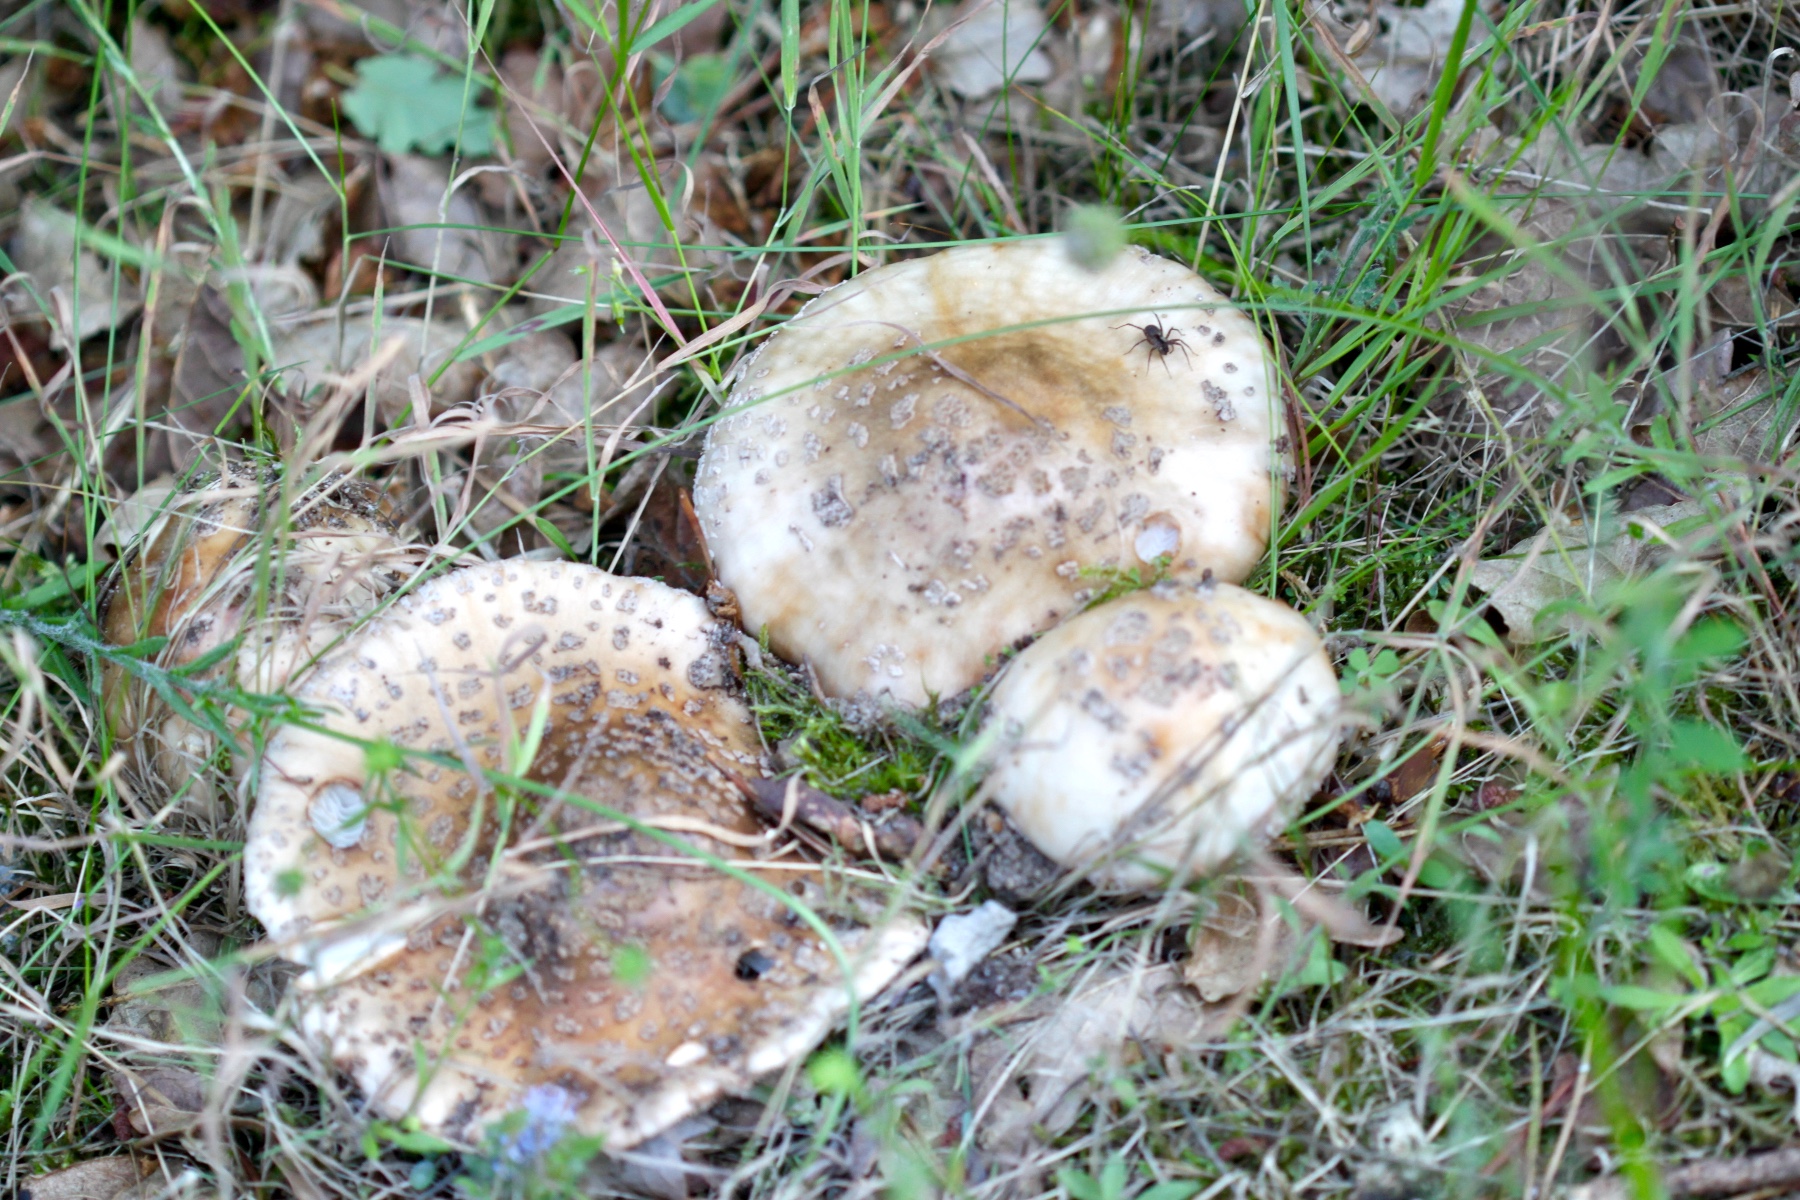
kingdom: Fungi
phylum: Basidiomycota
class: Agaricomycetes
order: Agaricales
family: Amanitaceae
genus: Amanita
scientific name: Amanita rubescens
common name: rødmende fluesvamp
